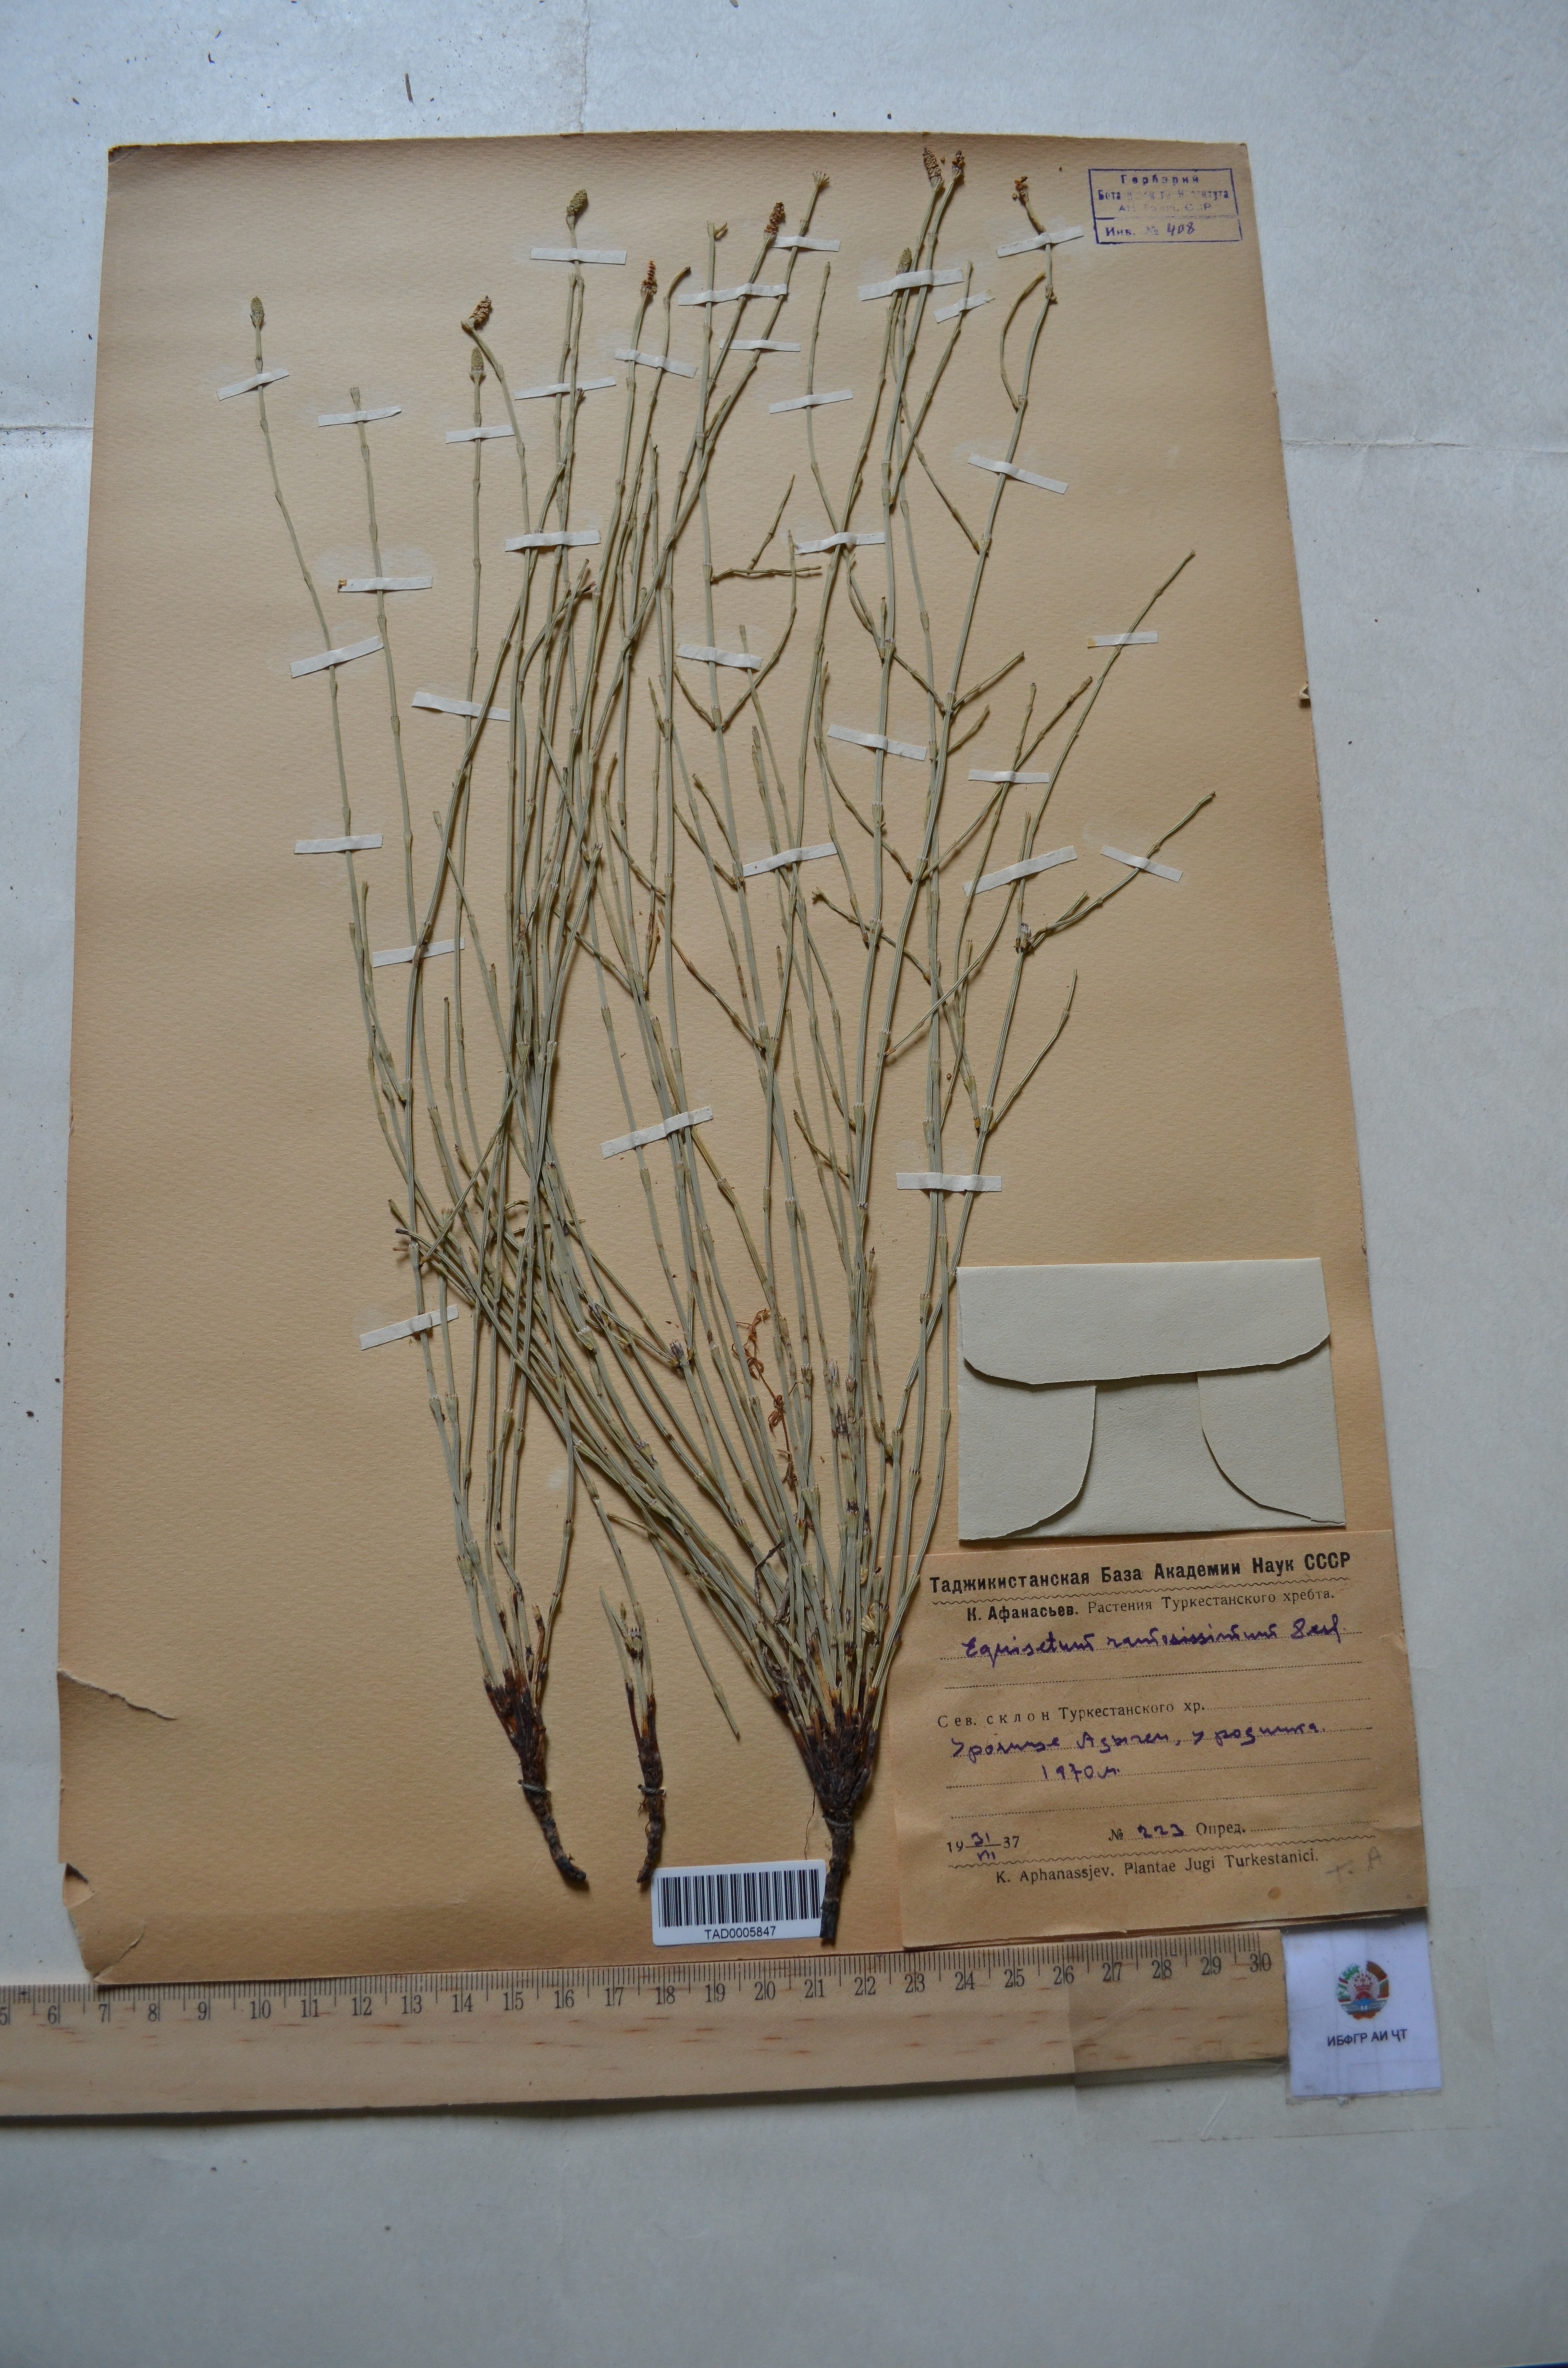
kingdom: Plantae
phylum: Tracheophyta
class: Polypodiopsida
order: Equisetales
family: Equisetaceae
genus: Equisetum
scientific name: Equisetum ramosissimum
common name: Branched horsetail
